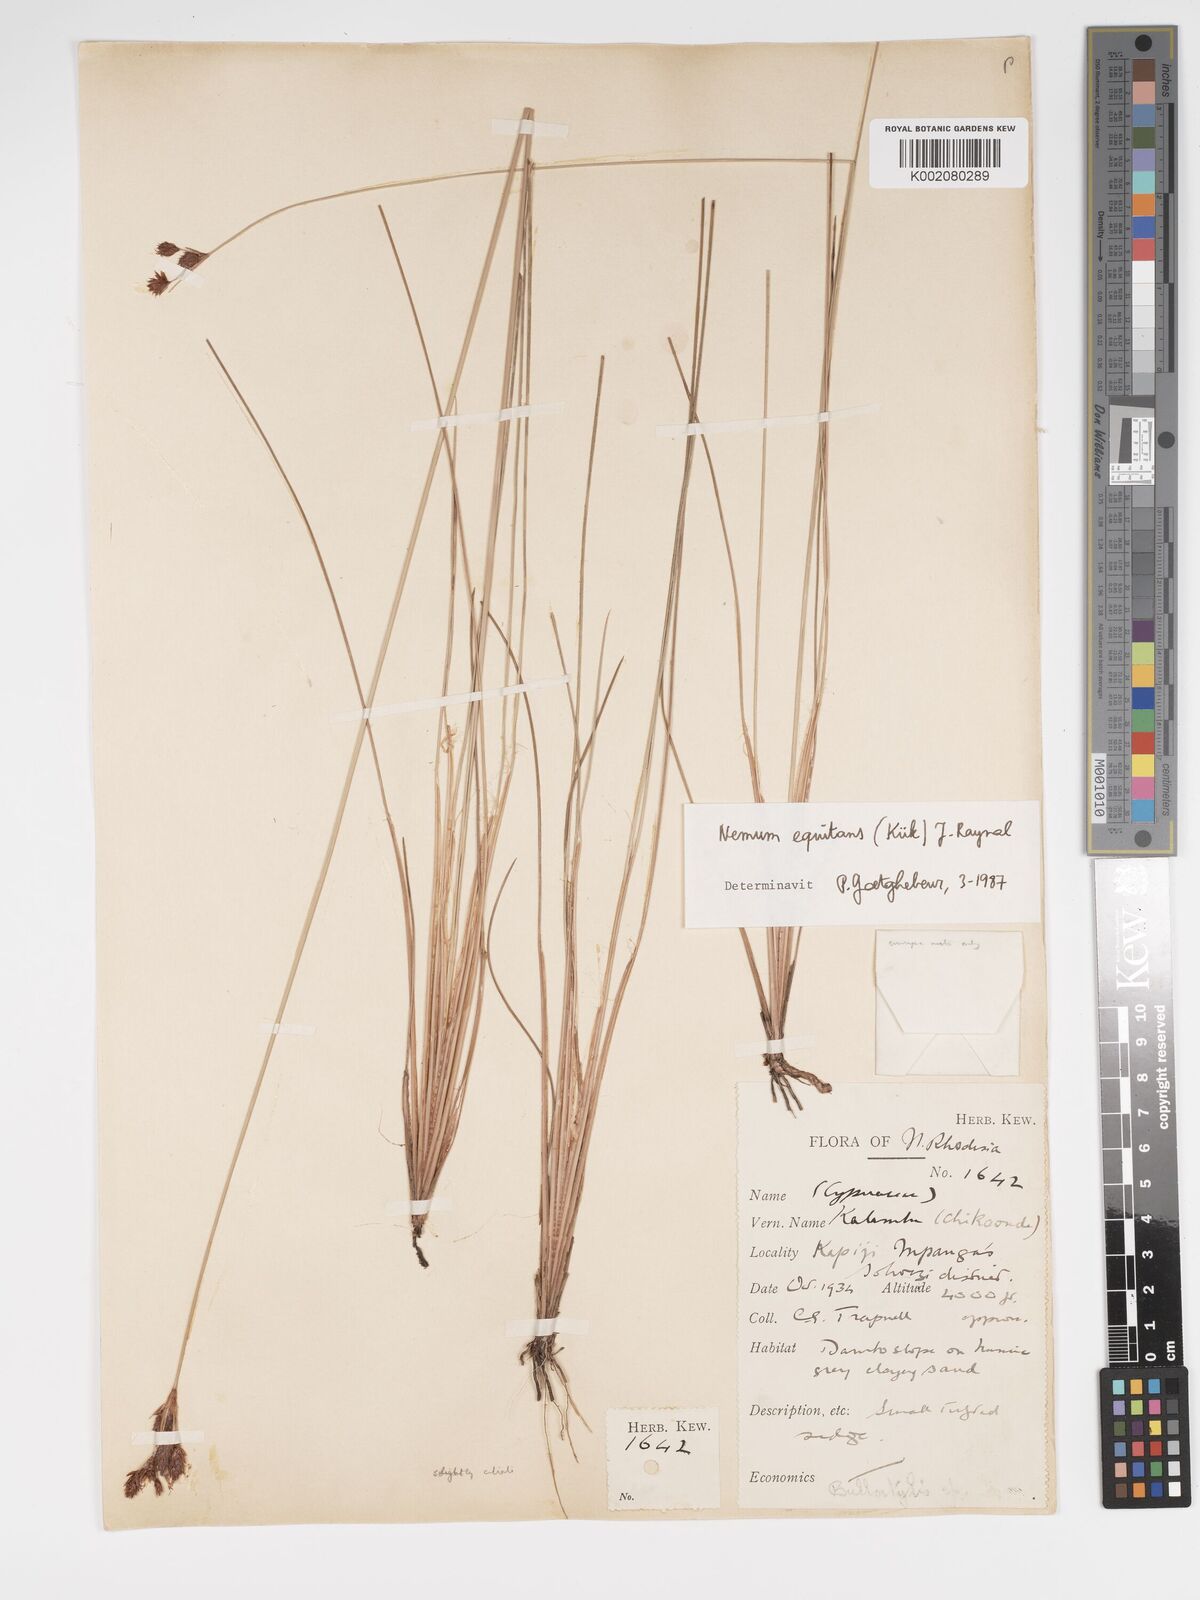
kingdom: Plantae
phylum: Tracheophyta
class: Liliopsida
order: Poales
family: Cyperaceae
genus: Bulbostylis
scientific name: Bulbostylis equitans
